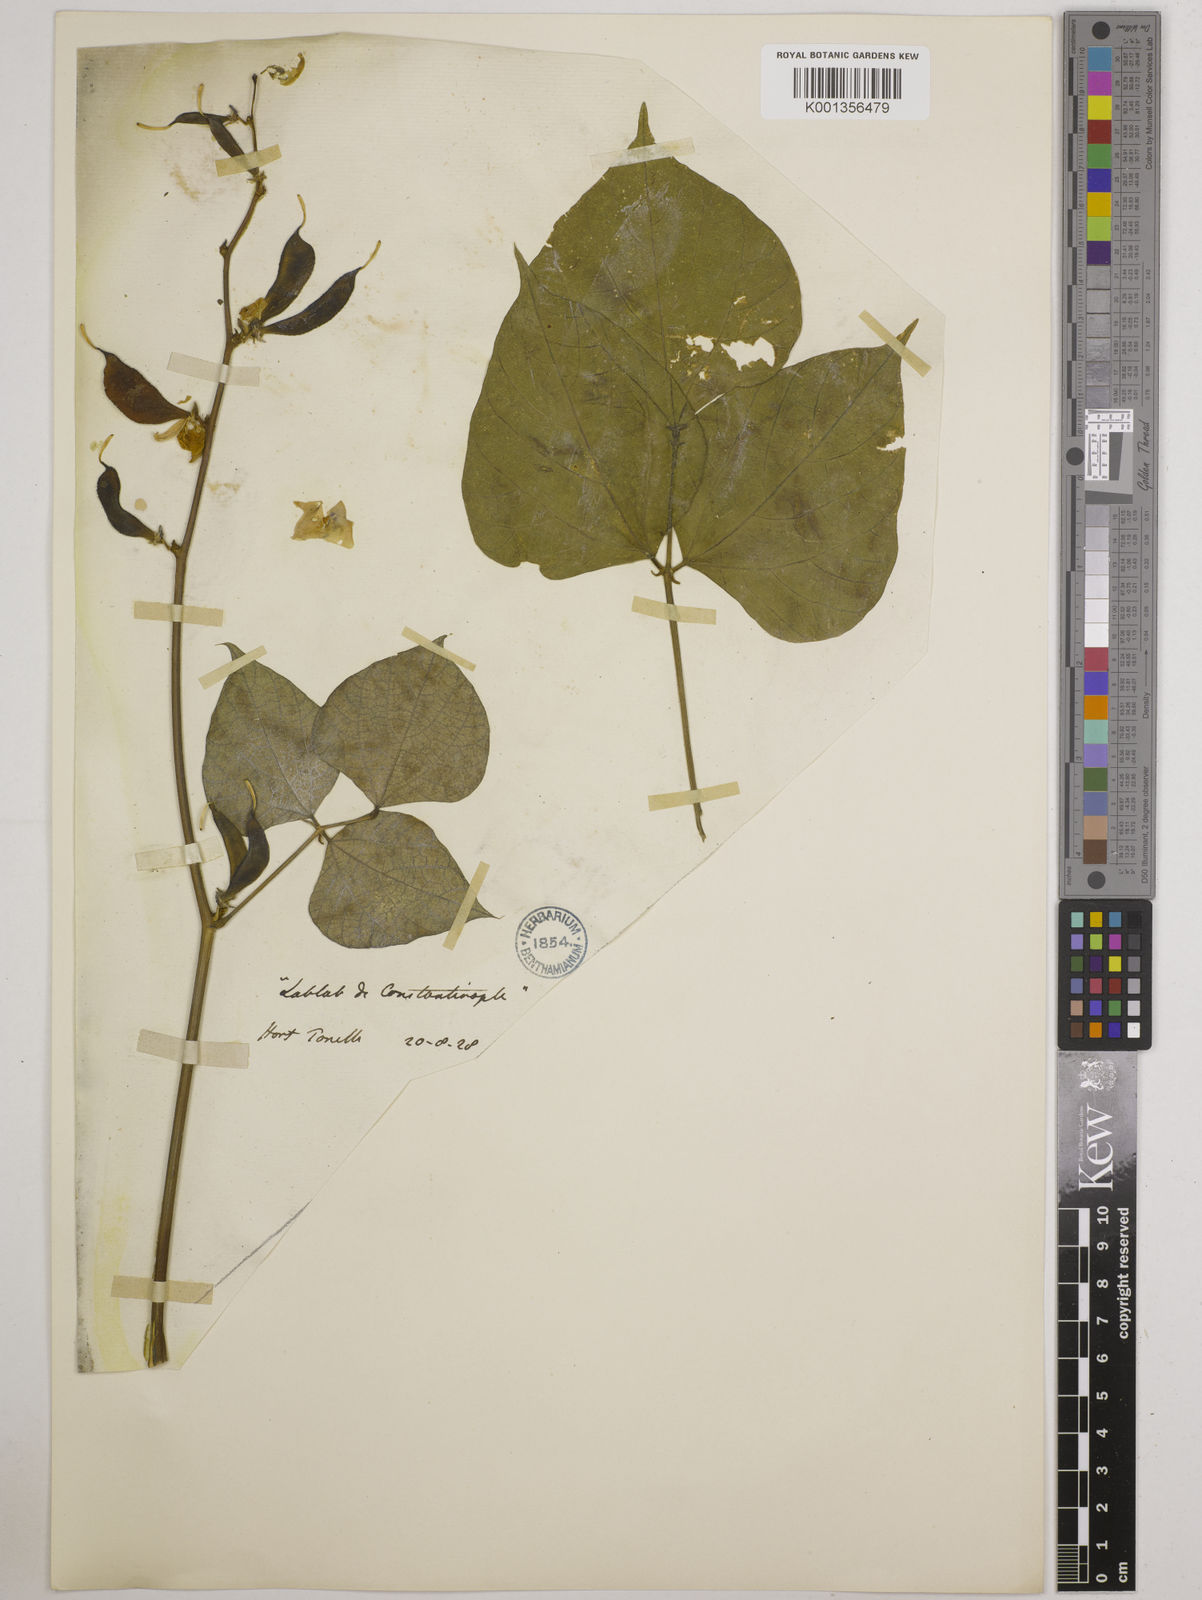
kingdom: Plantae
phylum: Tracheophyta
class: Magnoliopsida
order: Fabales
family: Fabaceae
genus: Lablab
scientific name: Lablab purpureus
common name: Lablab-bean
